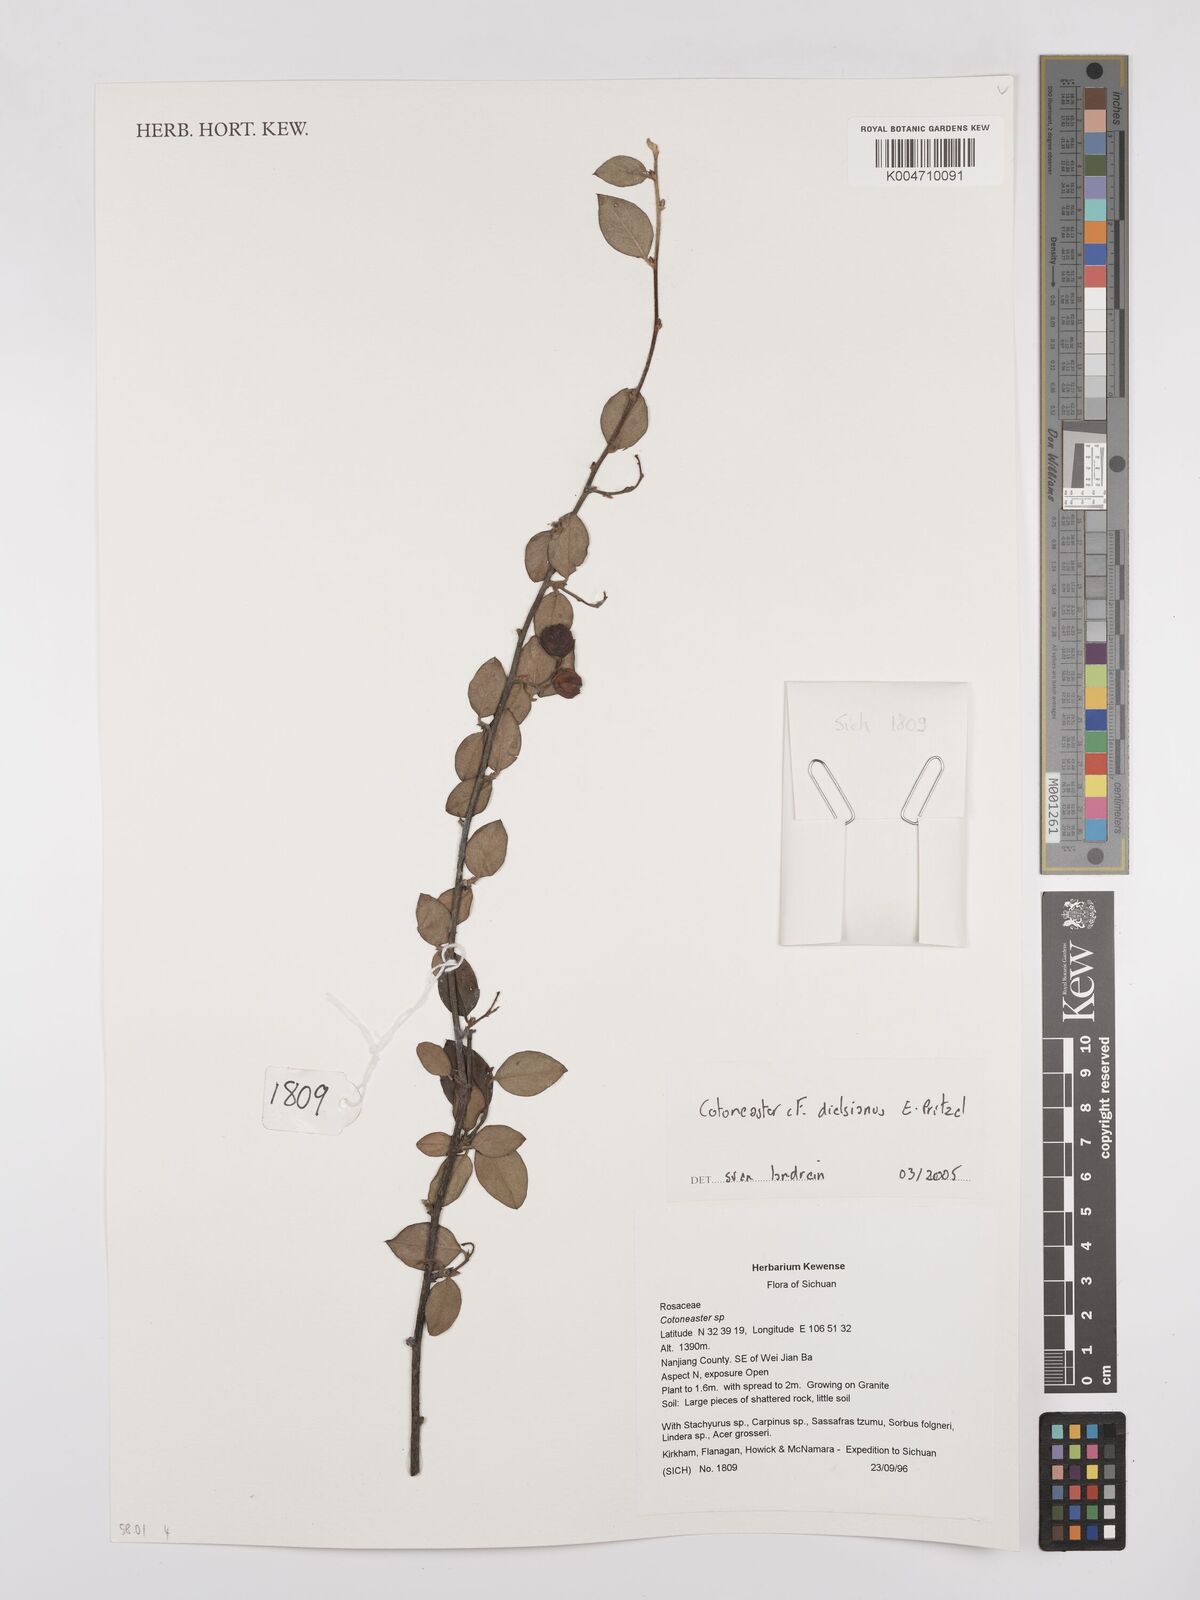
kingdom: Plantae
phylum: Tracheophyta
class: Magnoliopsida
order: Rosales
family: Rosaceae
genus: Cotoneaster
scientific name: Cotoneaster dielsianus
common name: Diels's cotoneaster
